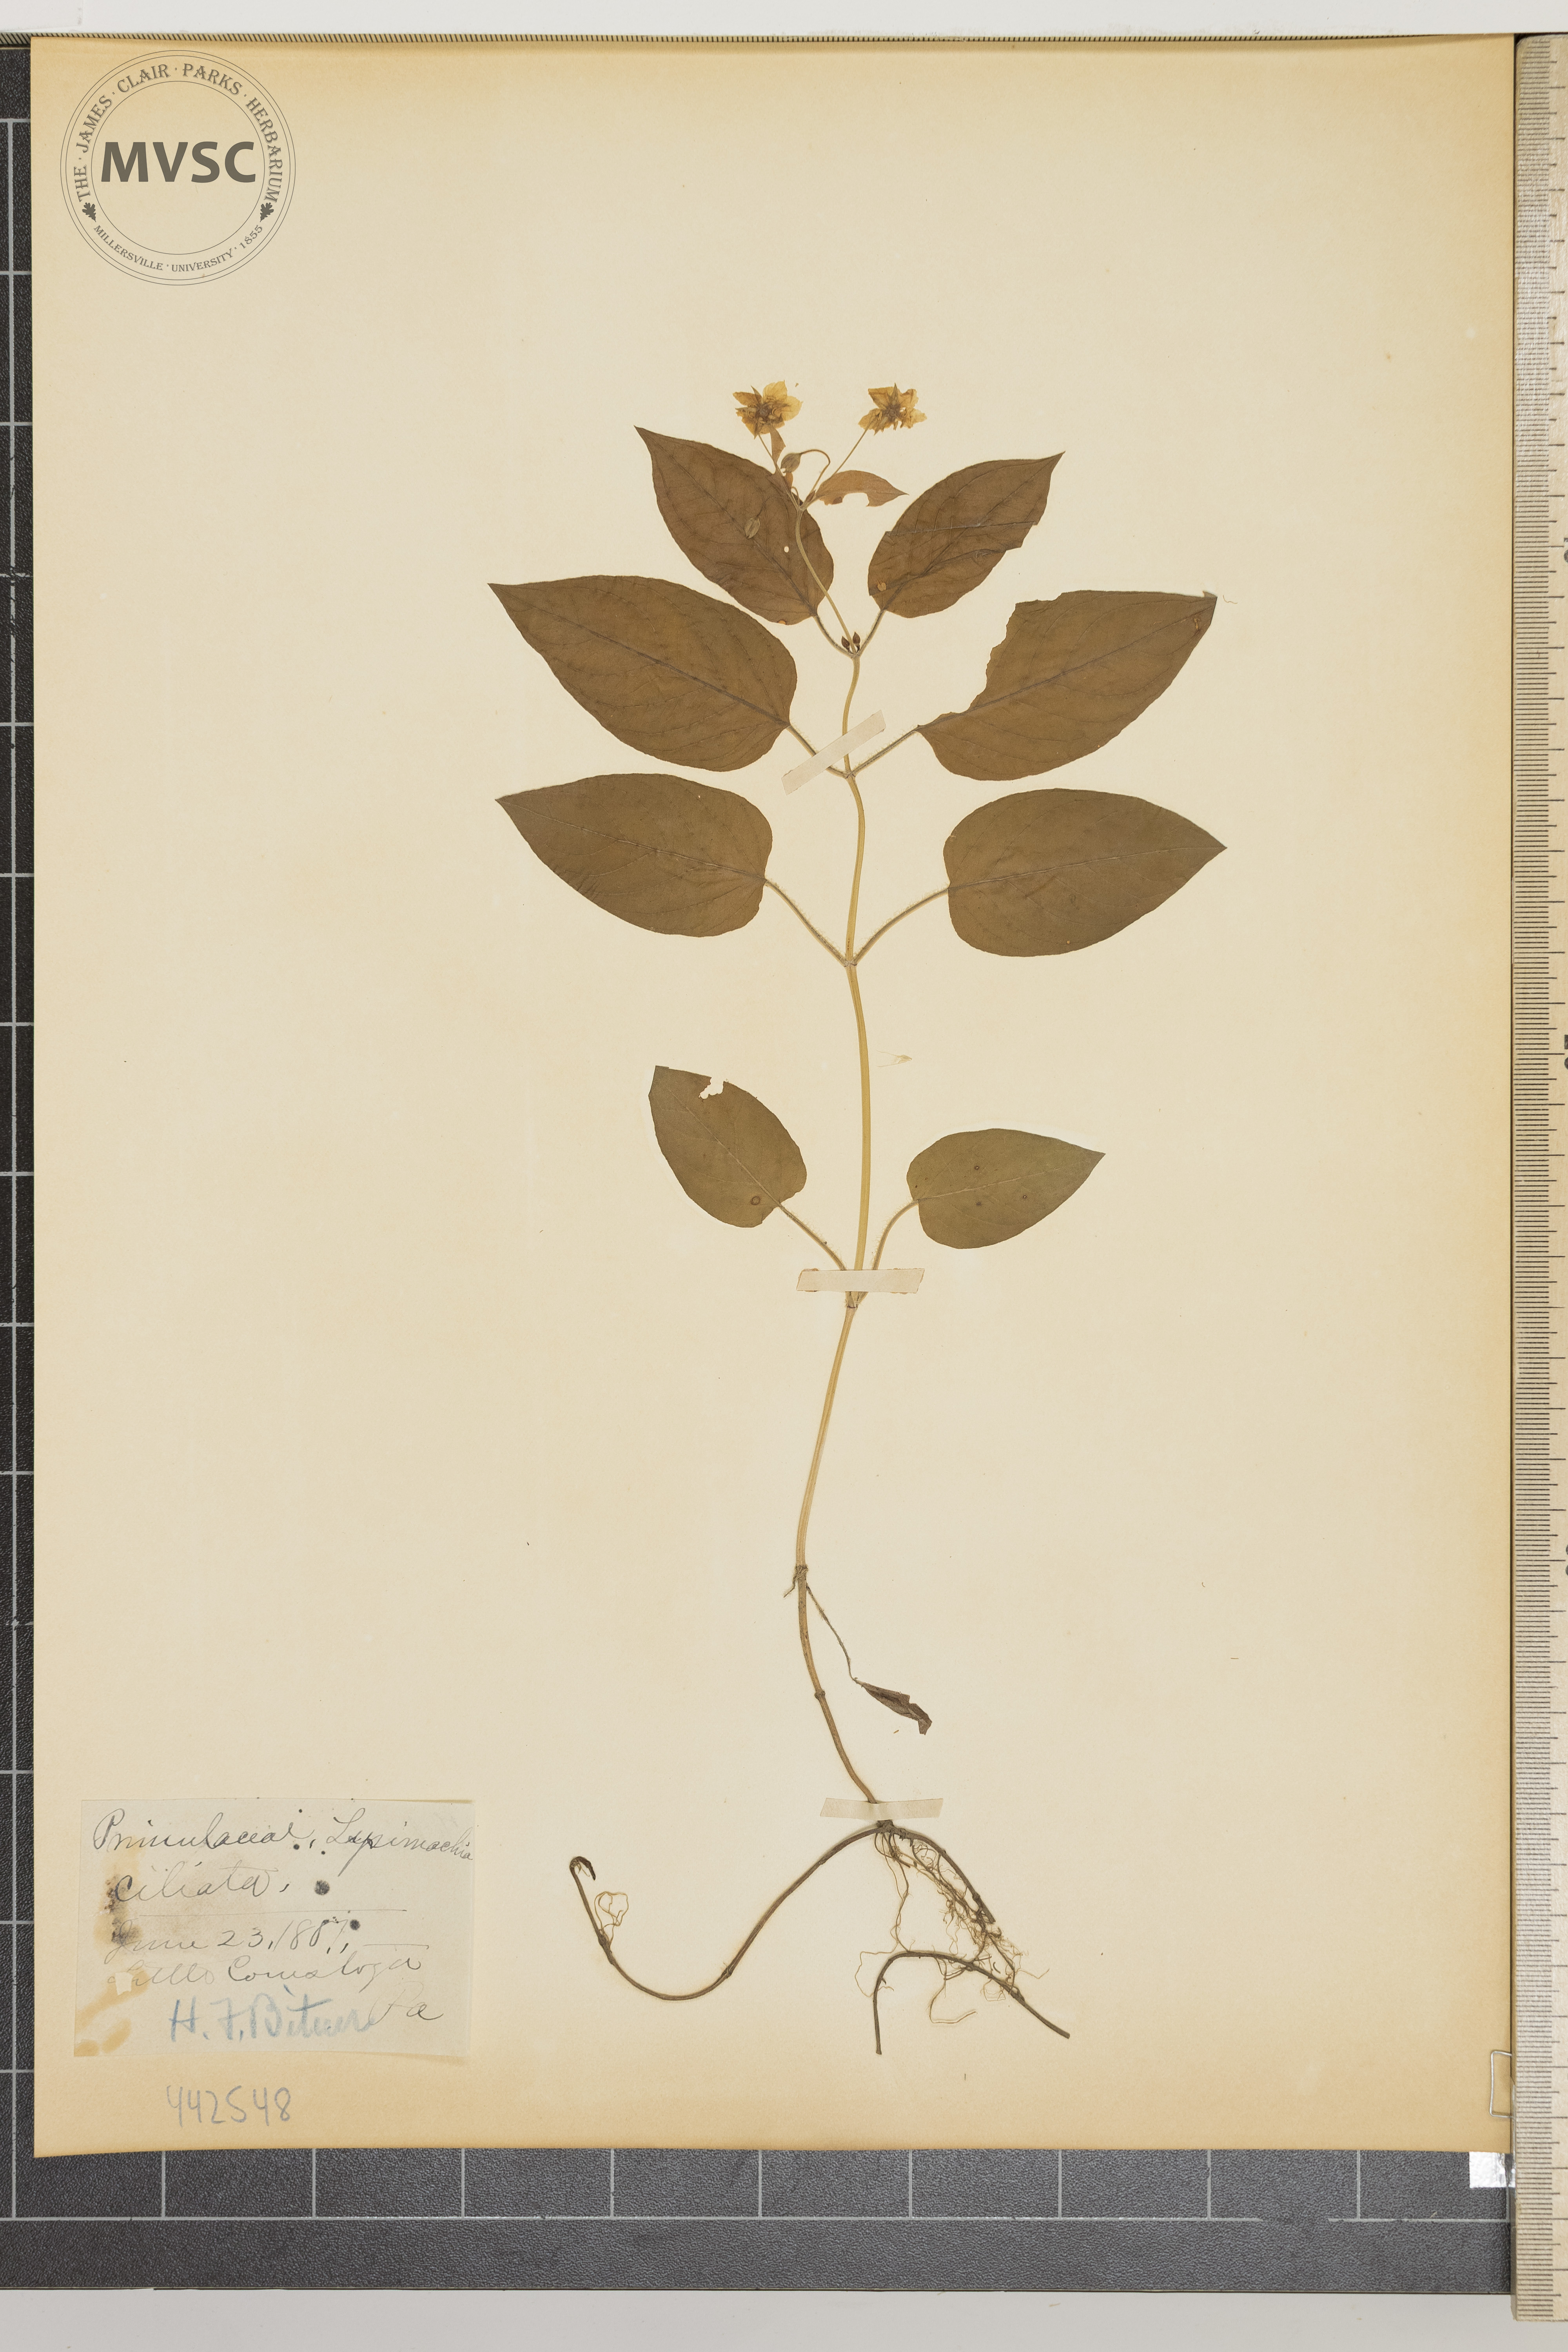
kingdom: Plantae
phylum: Tracheophyta
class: Magnoliopsida
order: Ericales
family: Primulaceae
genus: Lysimachia
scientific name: Lysimachia ciliata
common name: Fringed loosestrife
